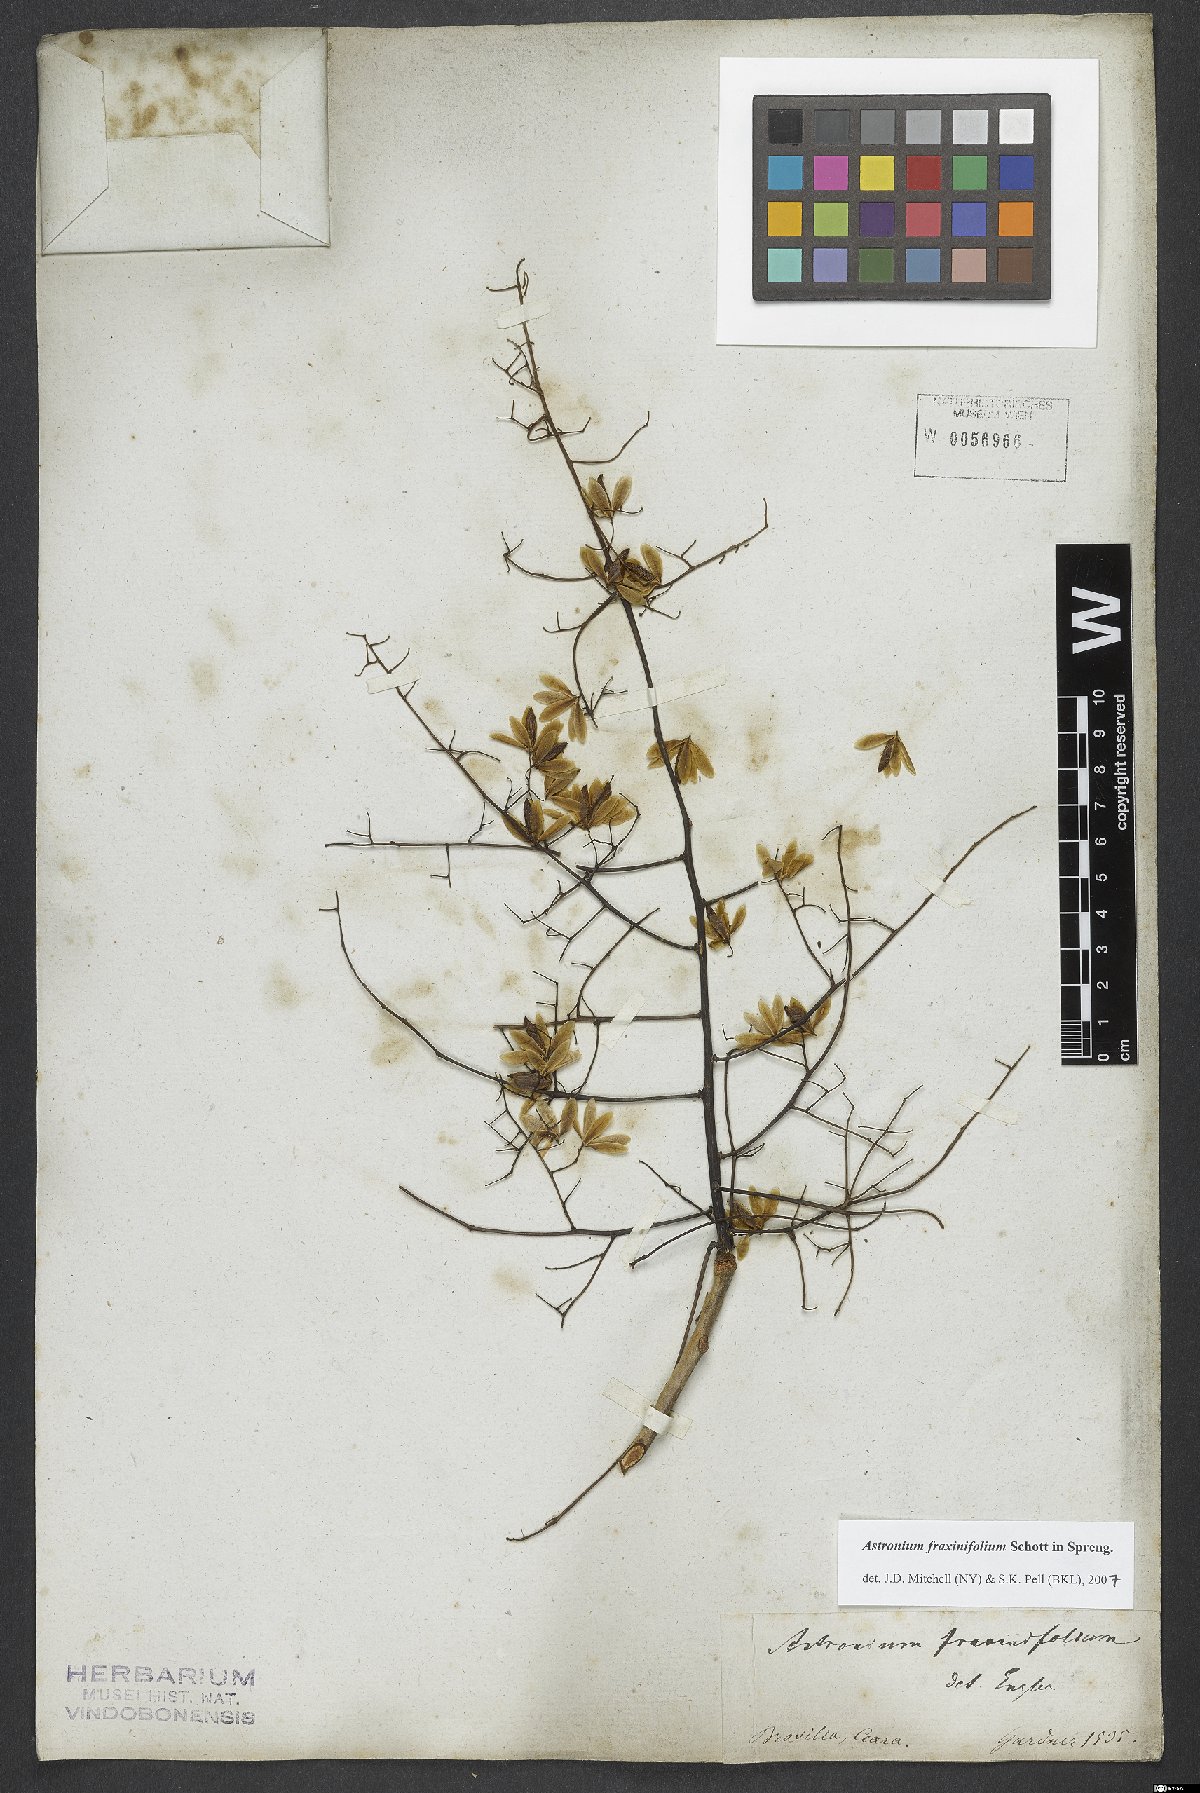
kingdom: Plantae
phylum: Tracheophyta
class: Magnoliopsida
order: Sapindales
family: Anacardiaceae
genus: Astronium
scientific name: Astronium fraxinifolium
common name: Tigerwood
